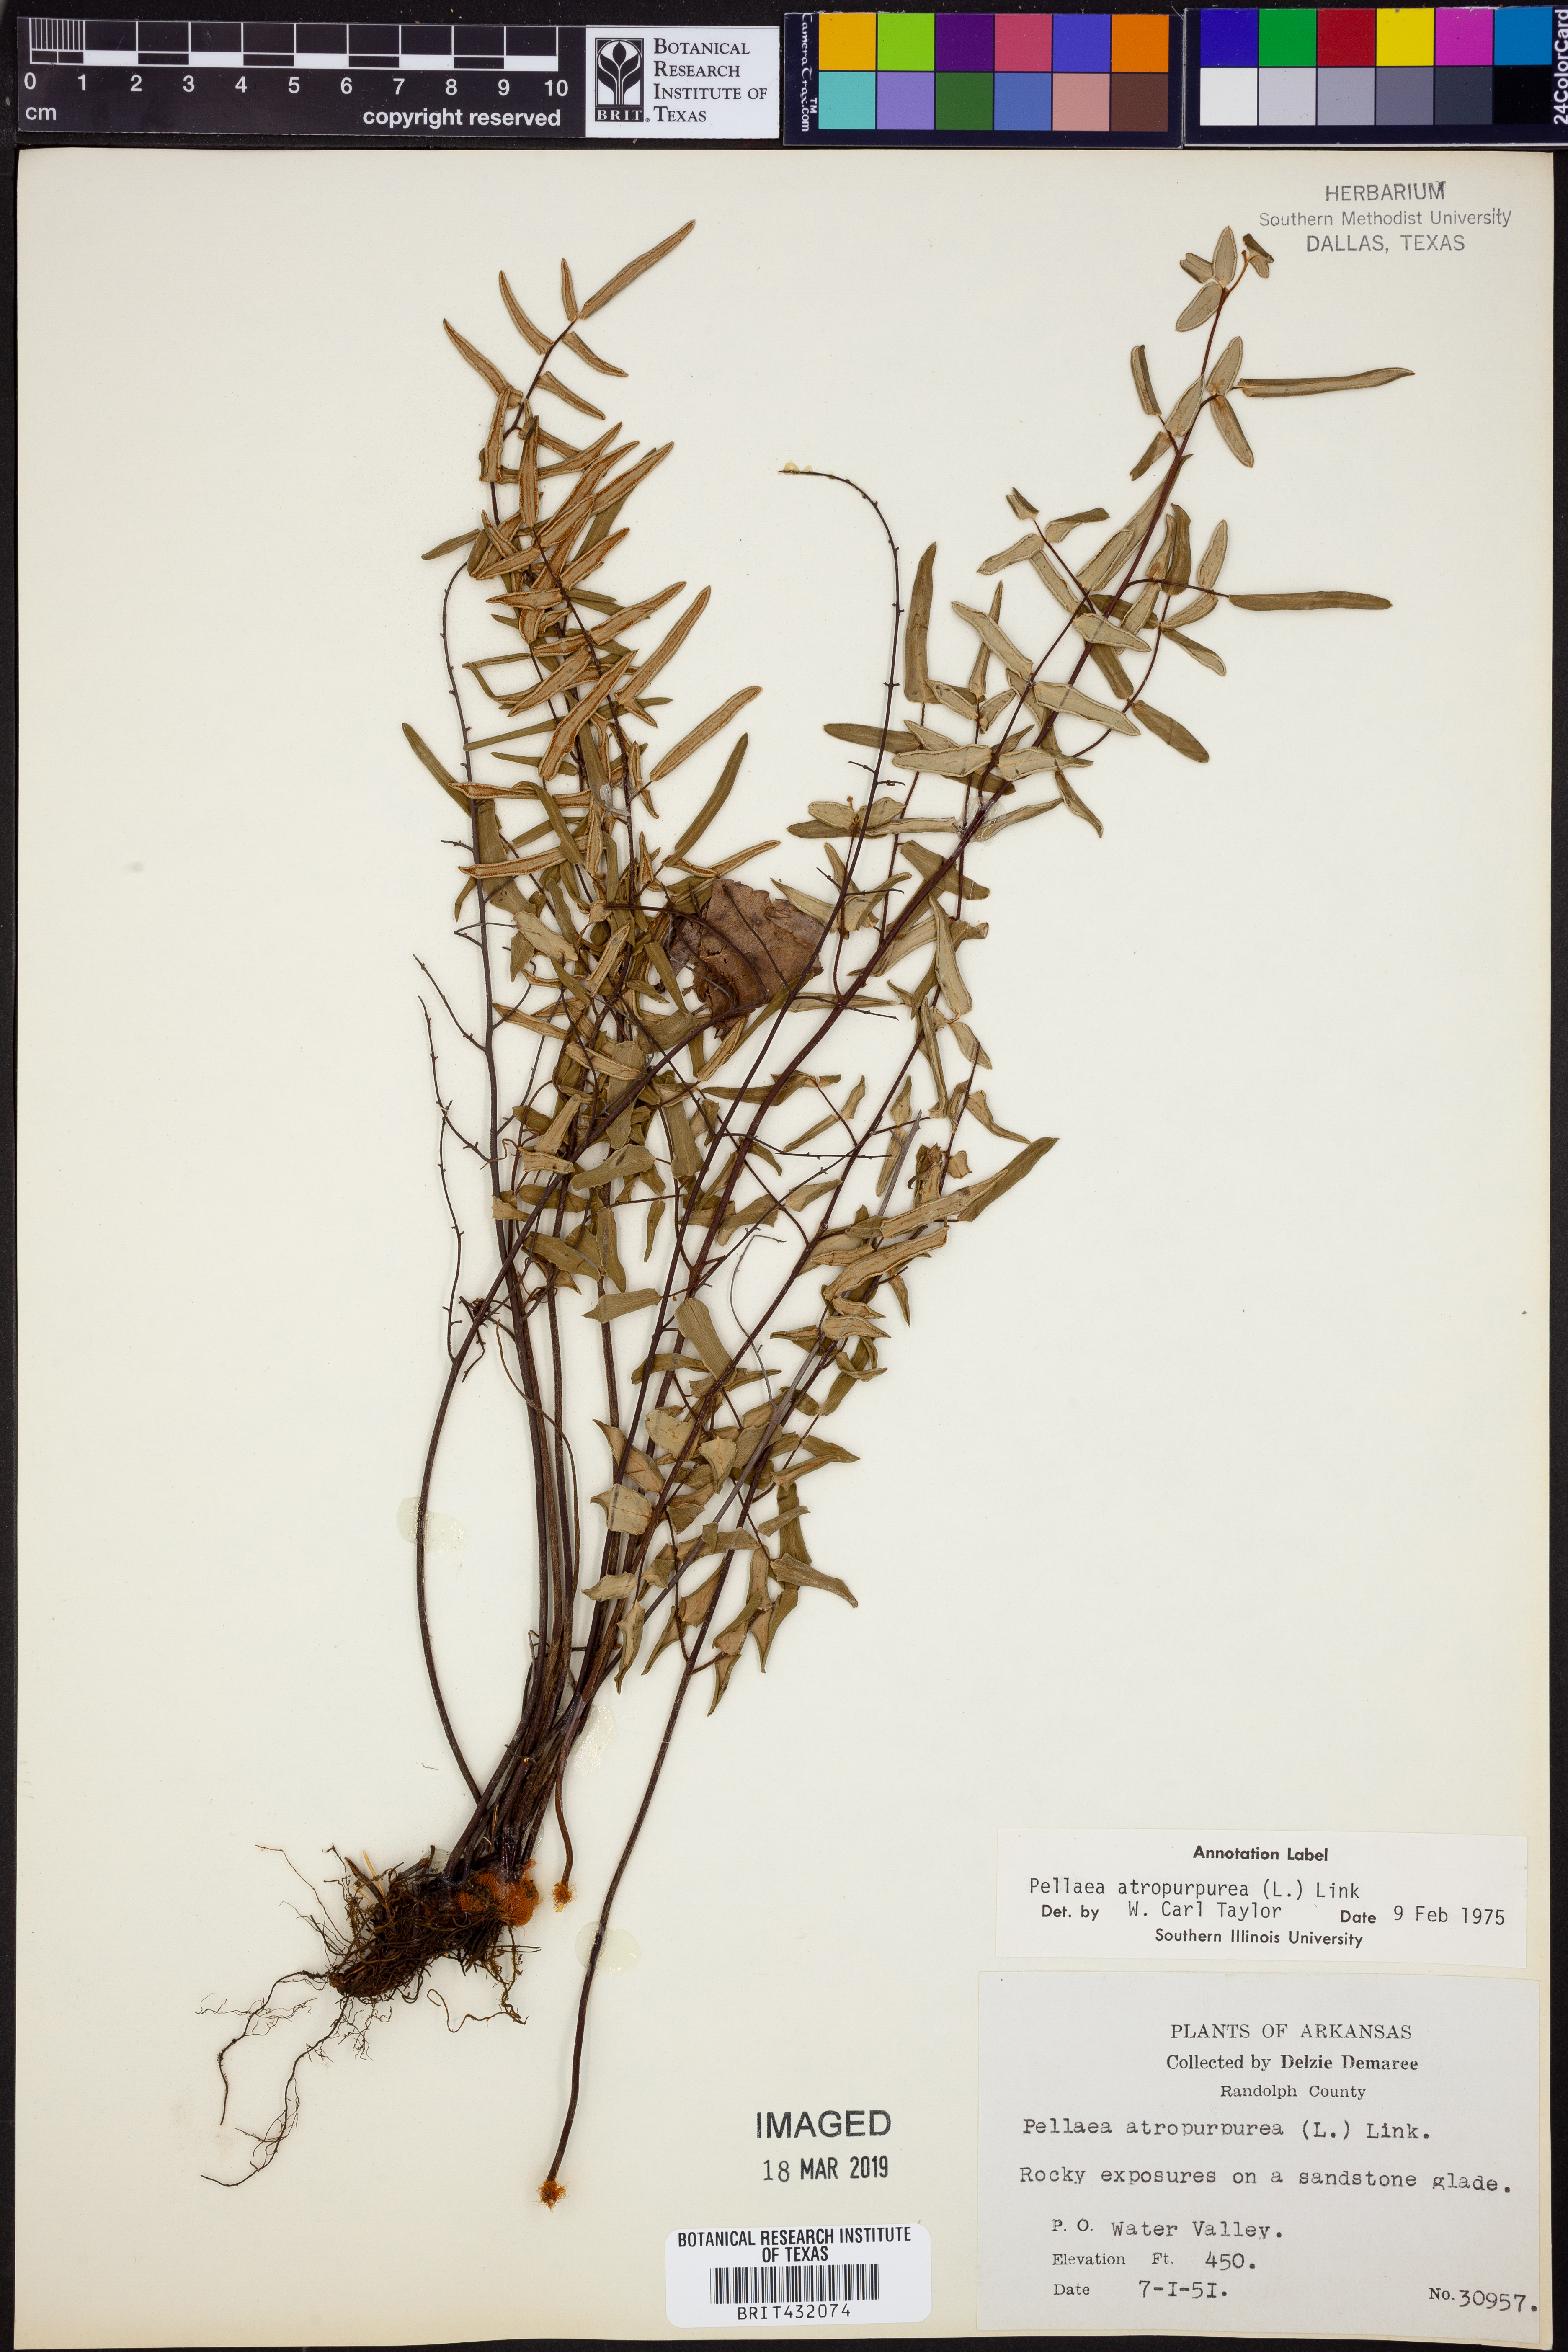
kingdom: Plantae
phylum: Tracheophyta
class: Polypodiopsida
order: Polypodiales
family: Pteridaceae
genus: Pellaea
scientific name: Pellaea atropurpurea
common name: Hairy cliffbrake
